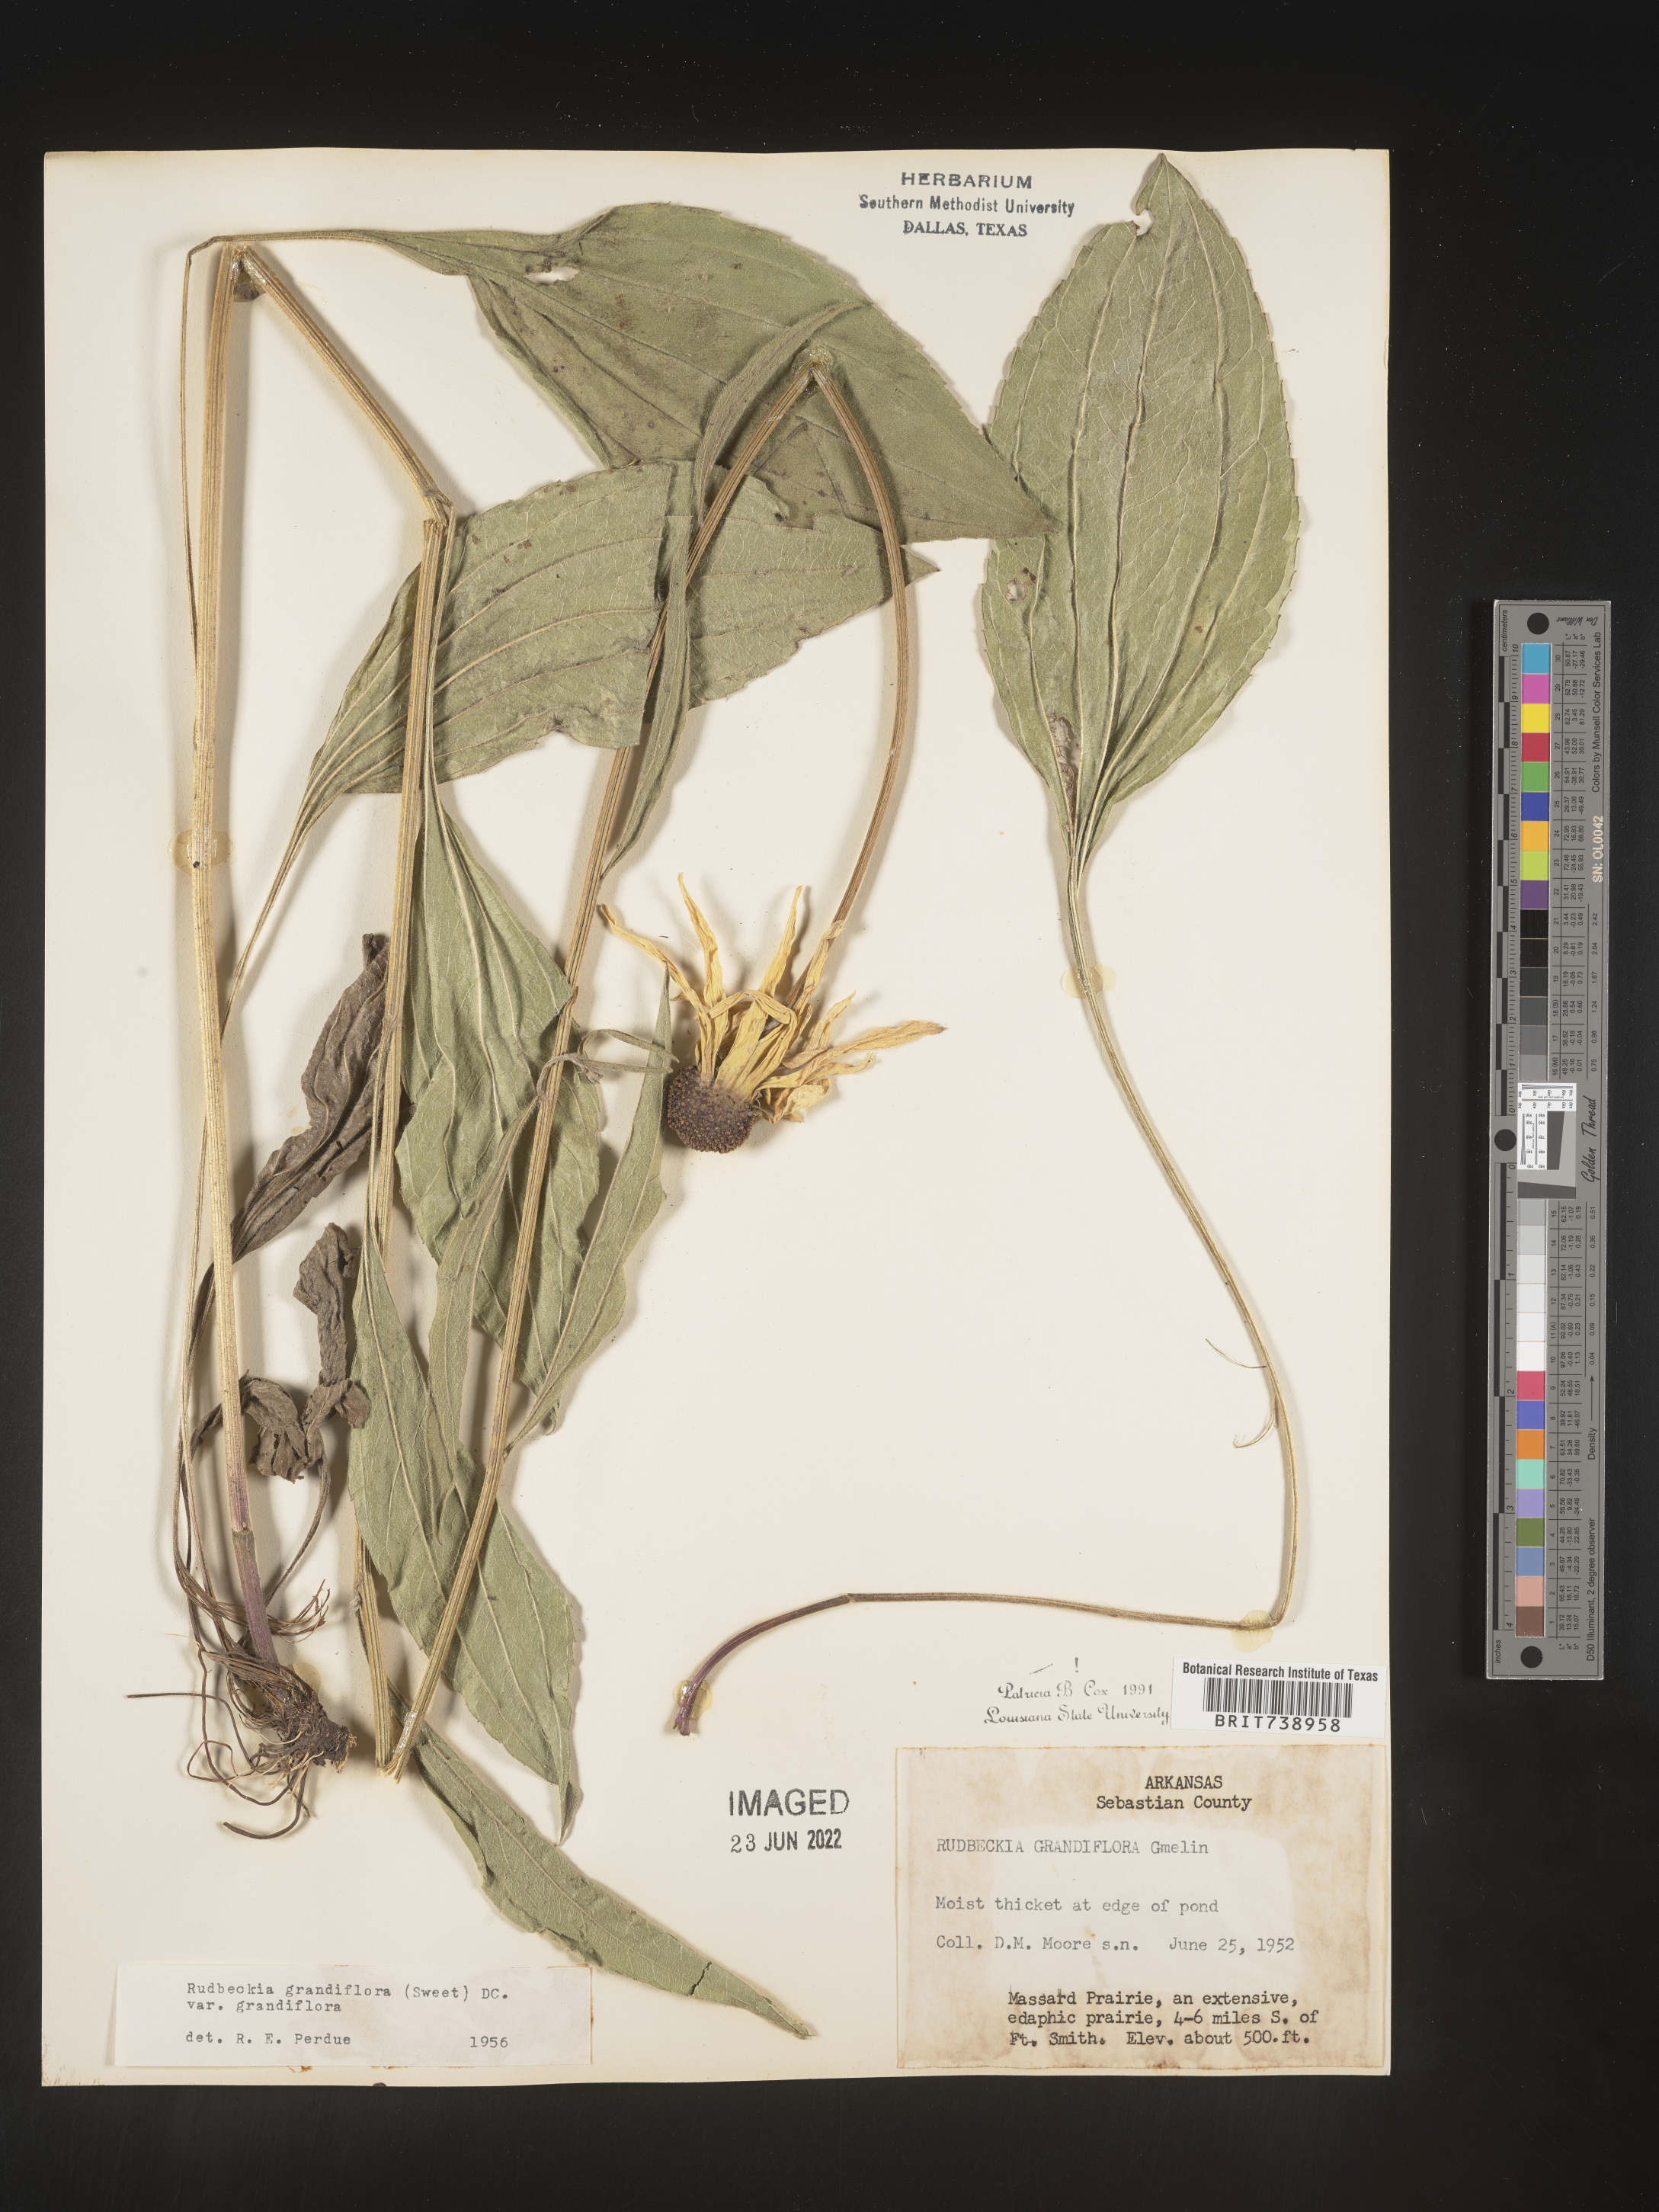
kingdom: Plantae
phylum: Tracheophyta
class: Magnoliopsida
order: Asterales
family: Asteraceae
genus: Rudbeckia
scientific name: Rudbeckia grandiflora
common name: Large-flowered coneflower
